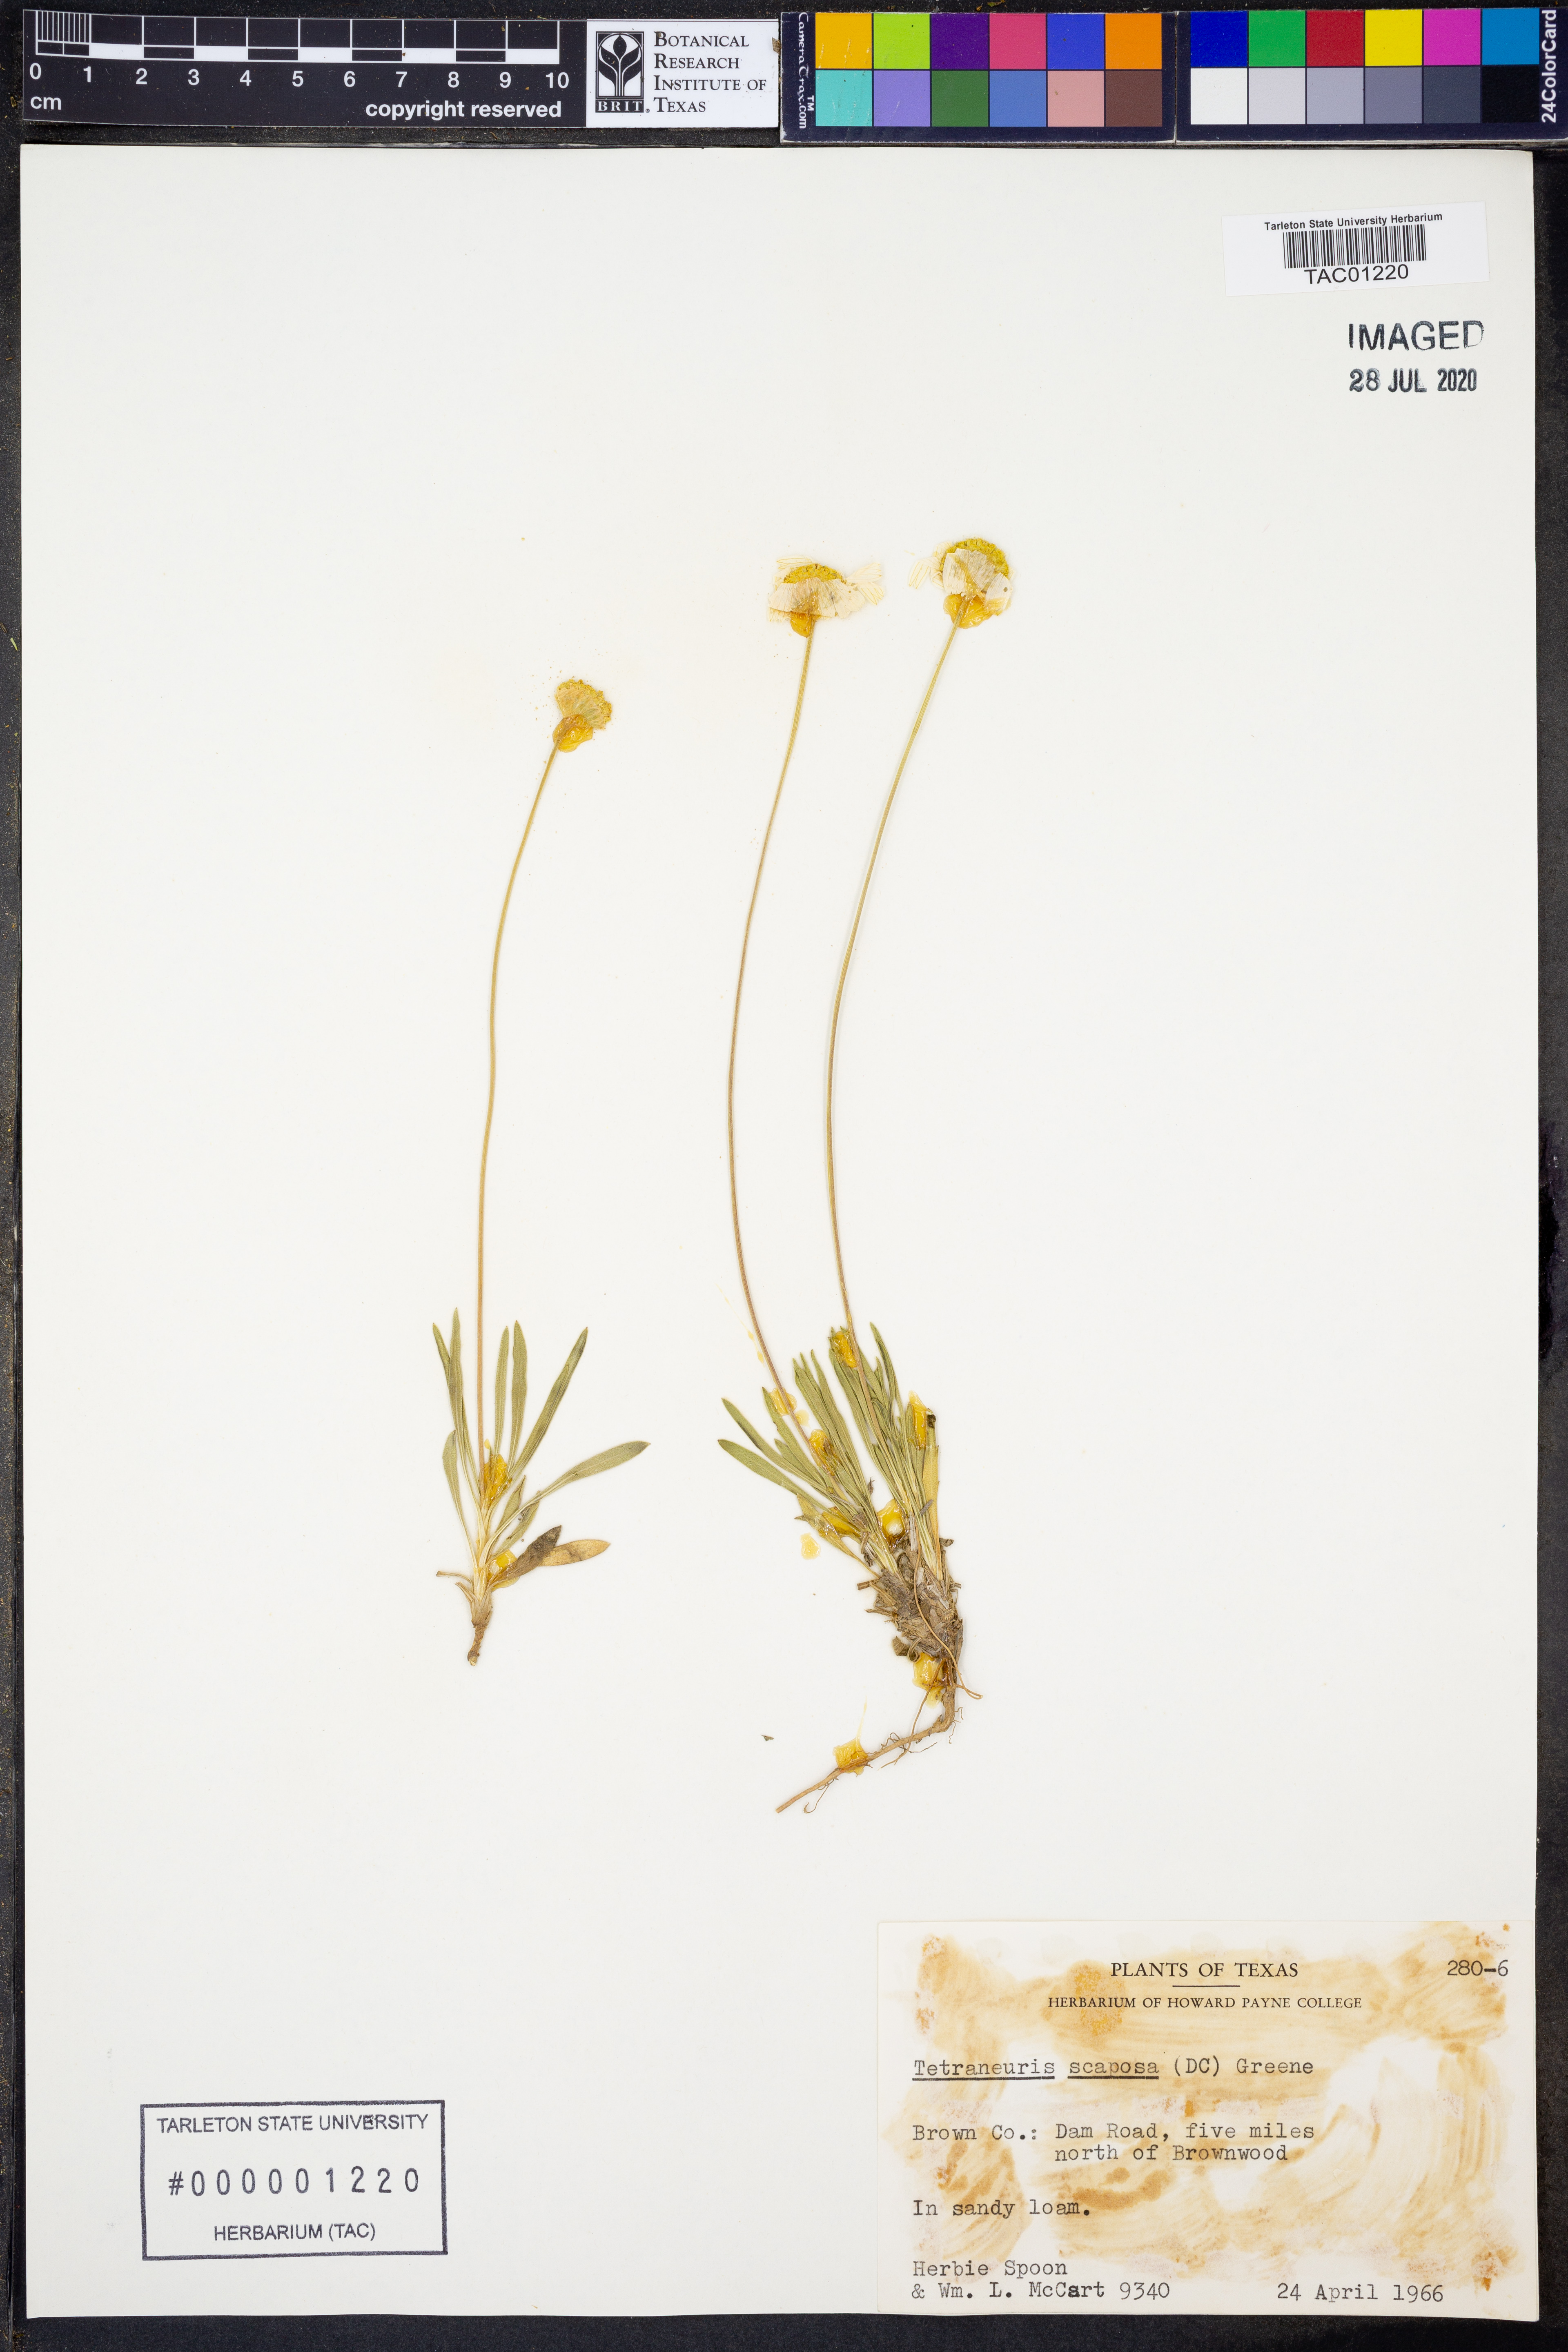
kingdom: Plantae
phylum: Tracheophyta
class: Magnoliopsida
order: Asterales
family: Asteraceae
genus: Tetraneuris
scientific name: Tetraneuris scaposa
